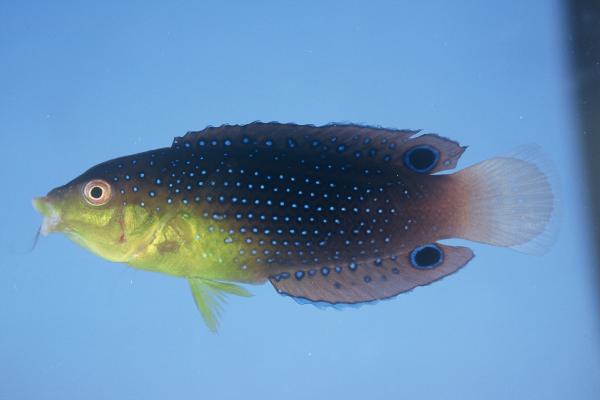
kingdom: Animalia
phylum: Chordata
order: Perciformes
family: Labridae
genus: Anampses
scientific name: Anampses twistii
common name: Yellowbreasted wrasse
